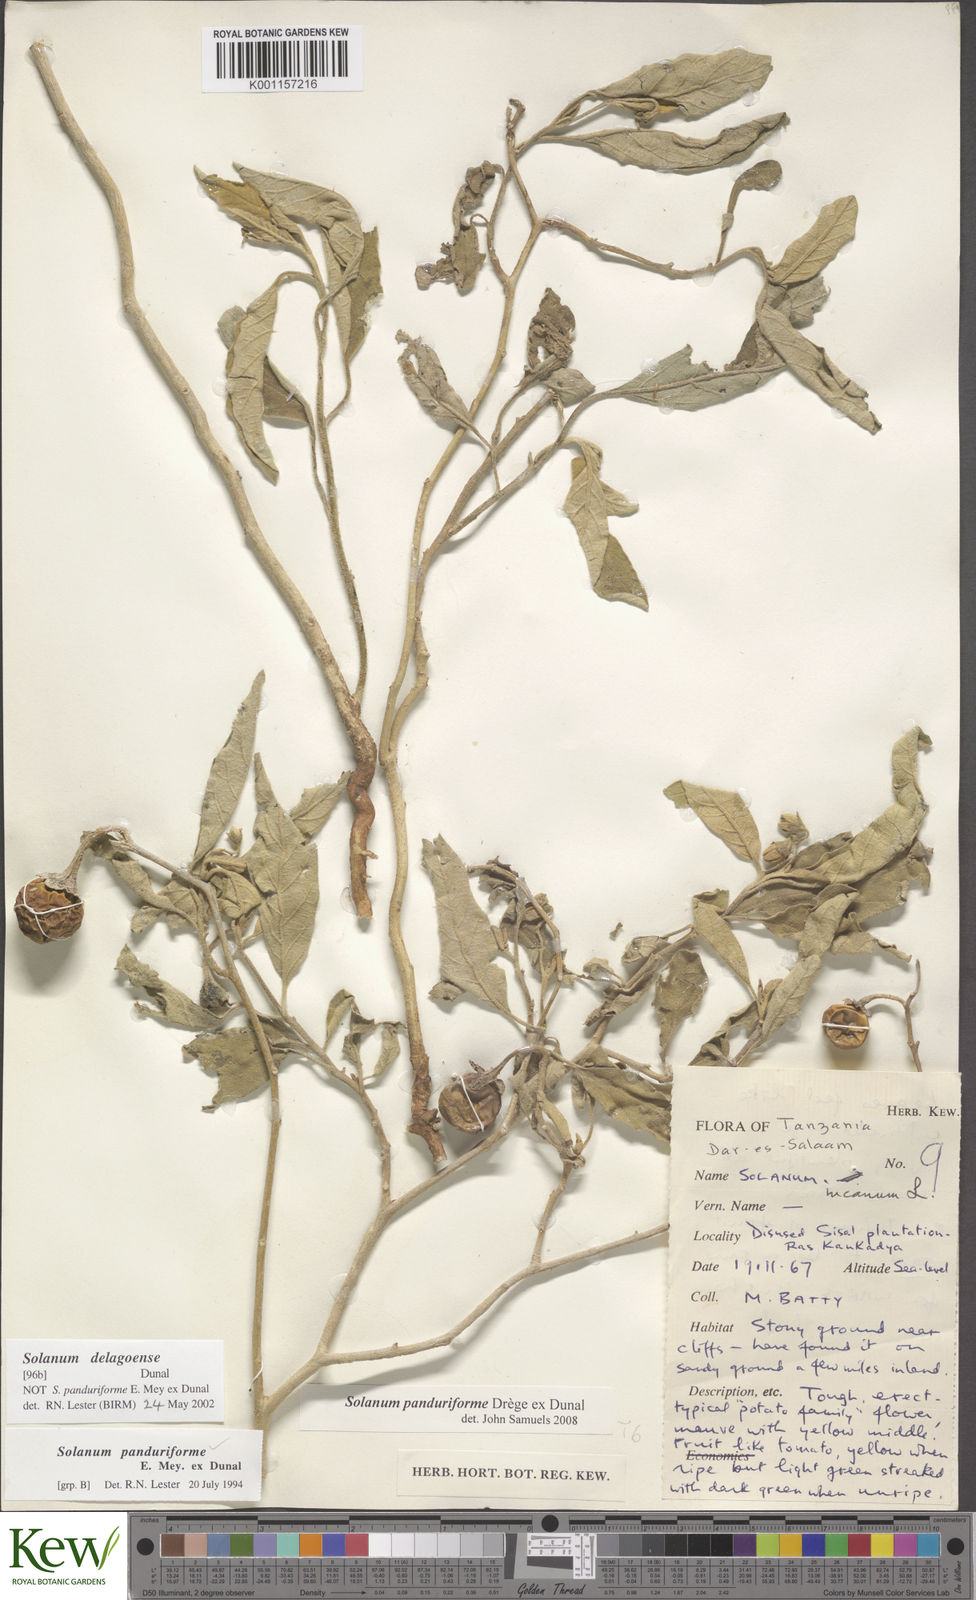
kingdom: Plantae
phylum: Tracheophyta
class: Magnoliopsida
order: Solanales
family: Solanaceae
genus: Solanum
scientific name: Solanum campylacanthum
